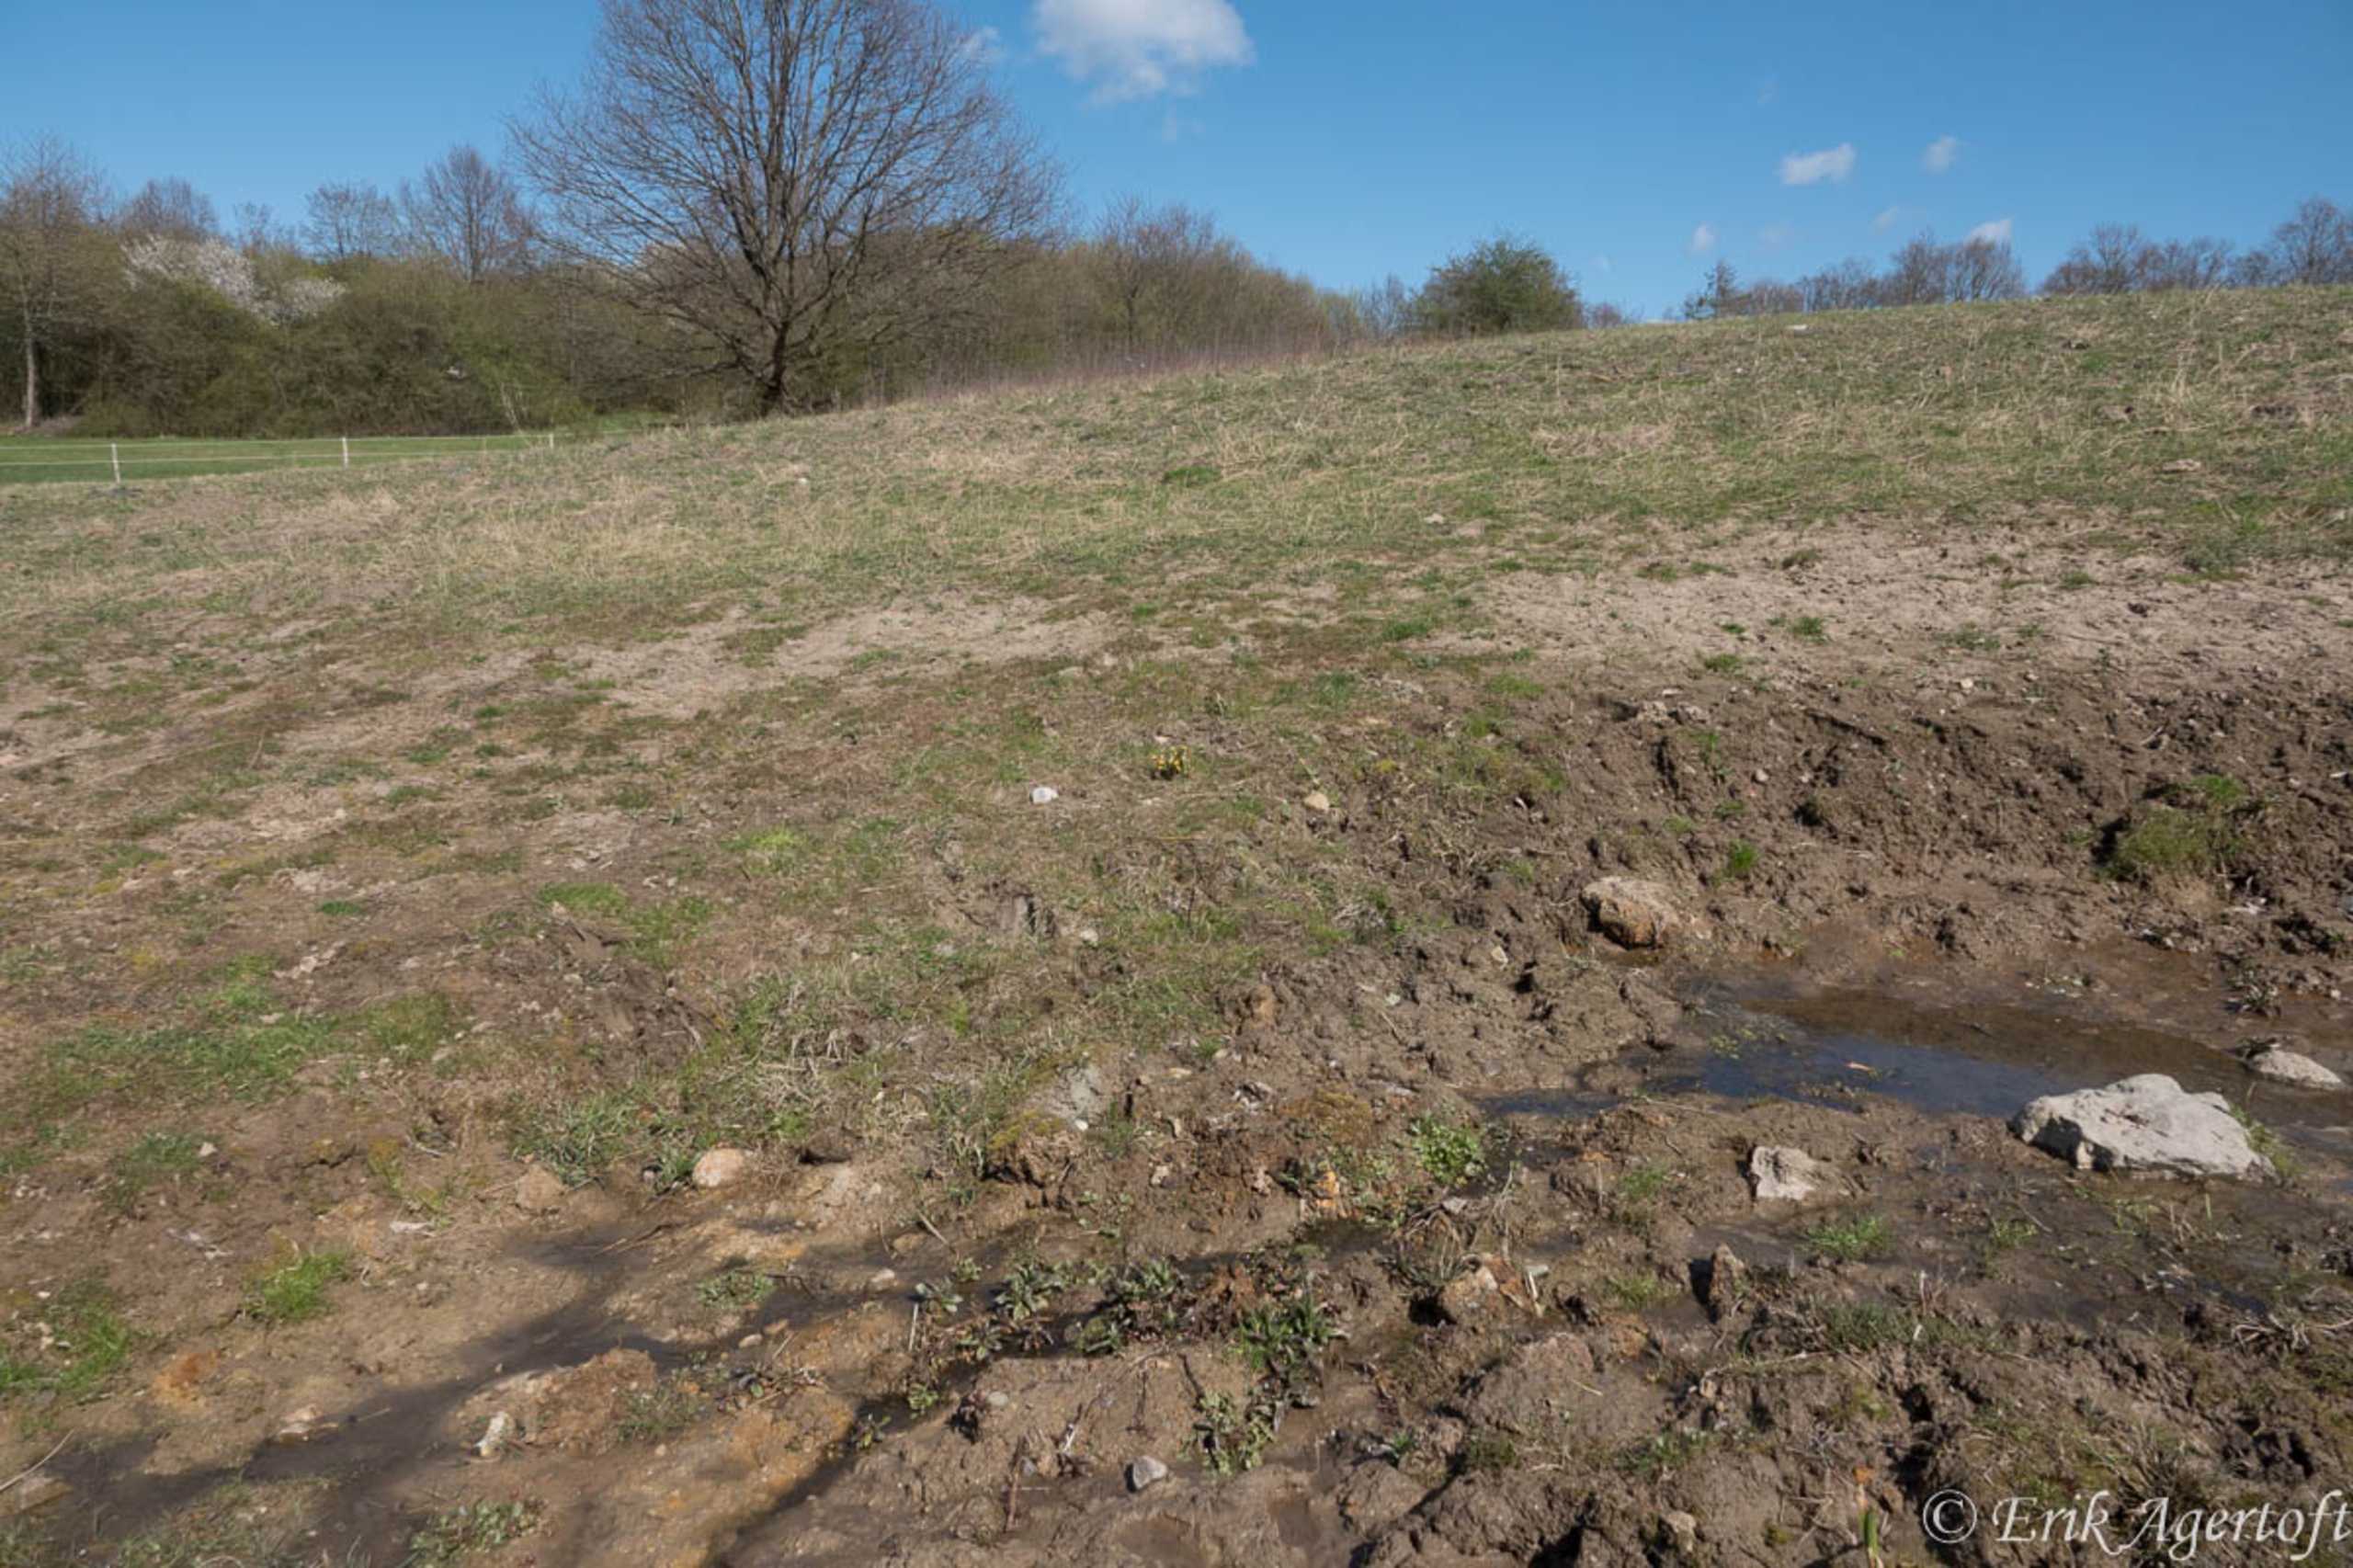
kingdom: Plantae
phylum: Tracheophyta
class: Magnoliopsida
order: Asterales
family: Asteraceae
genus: Tussilago
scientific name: Tussilago farfara
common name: Følfod
